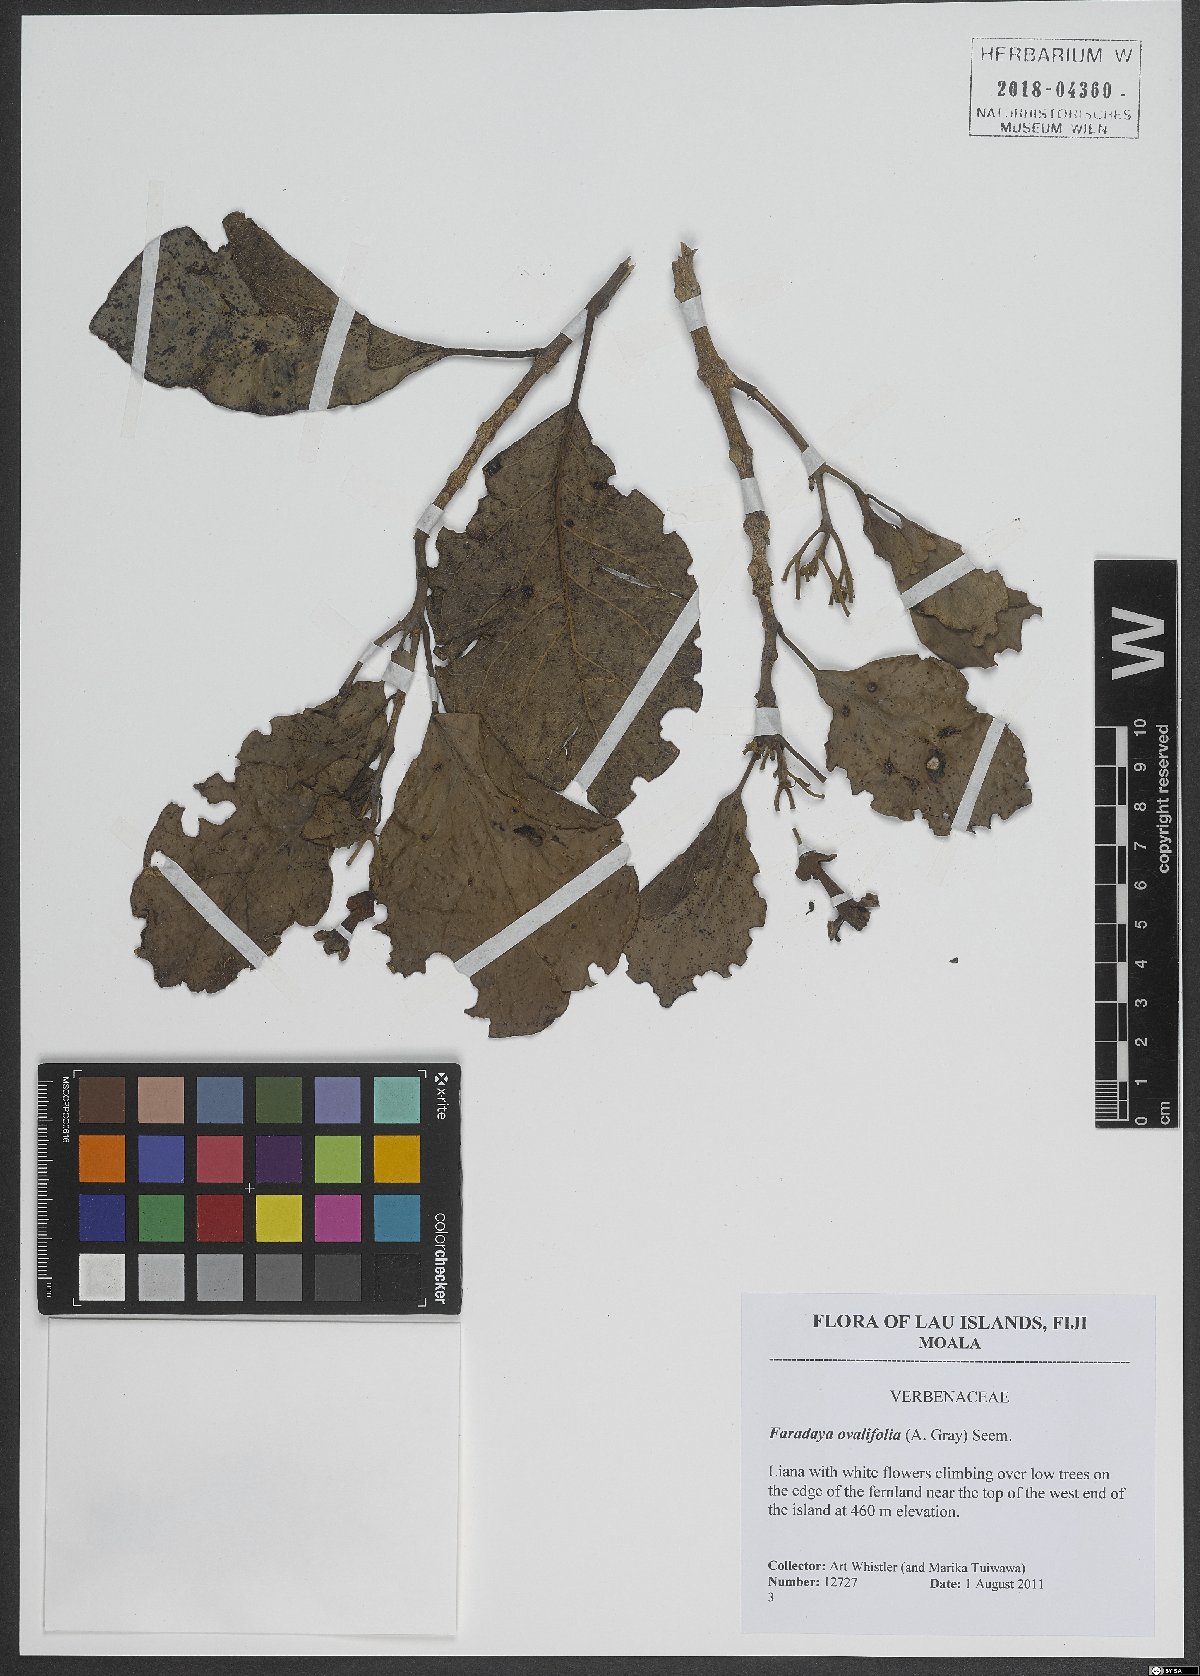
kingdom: Plantae
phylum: Tracheophyta
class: Magnoliopsida
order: Lamiales
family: Lamiaceae
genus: Oxera
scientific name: Oxera amicorum
